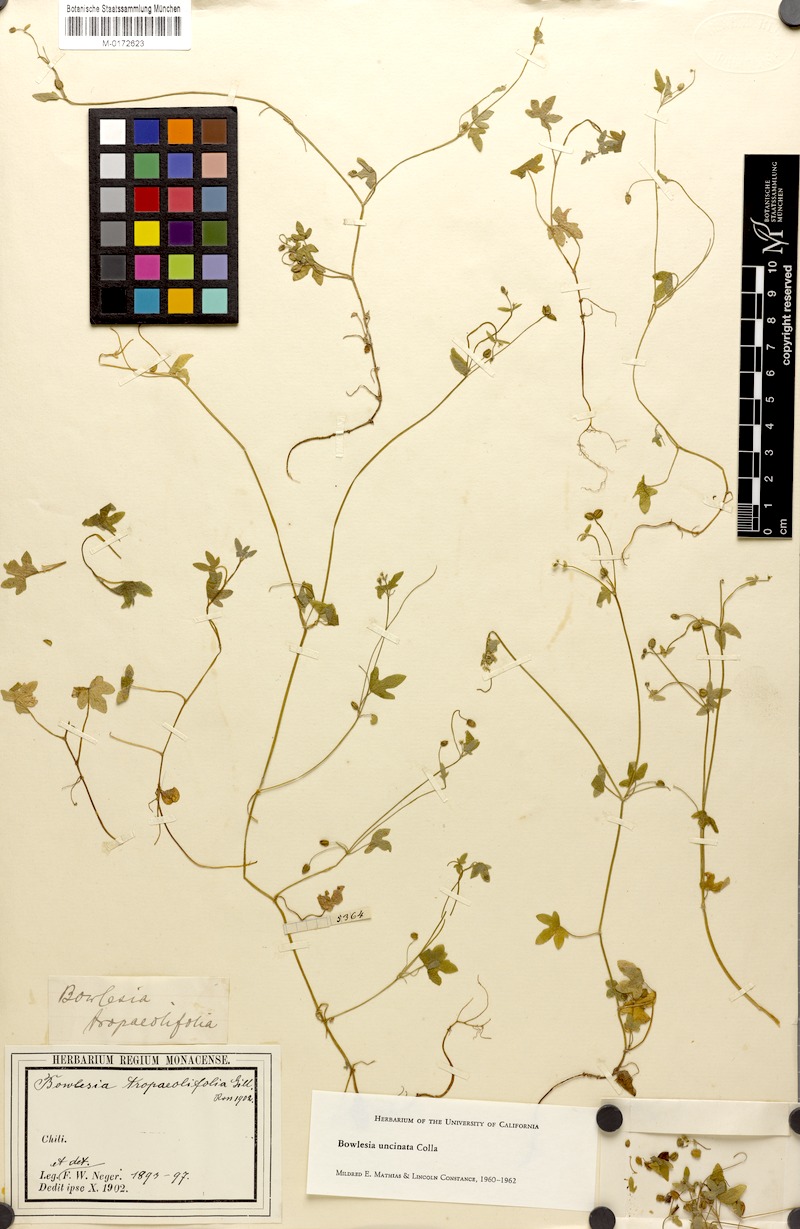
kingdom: Plantae
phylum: Tracheophyta
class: Magnoliopsida
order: Apiales
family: Apiaceae
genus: Bowlesia
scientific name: Bowlesia uncinata
